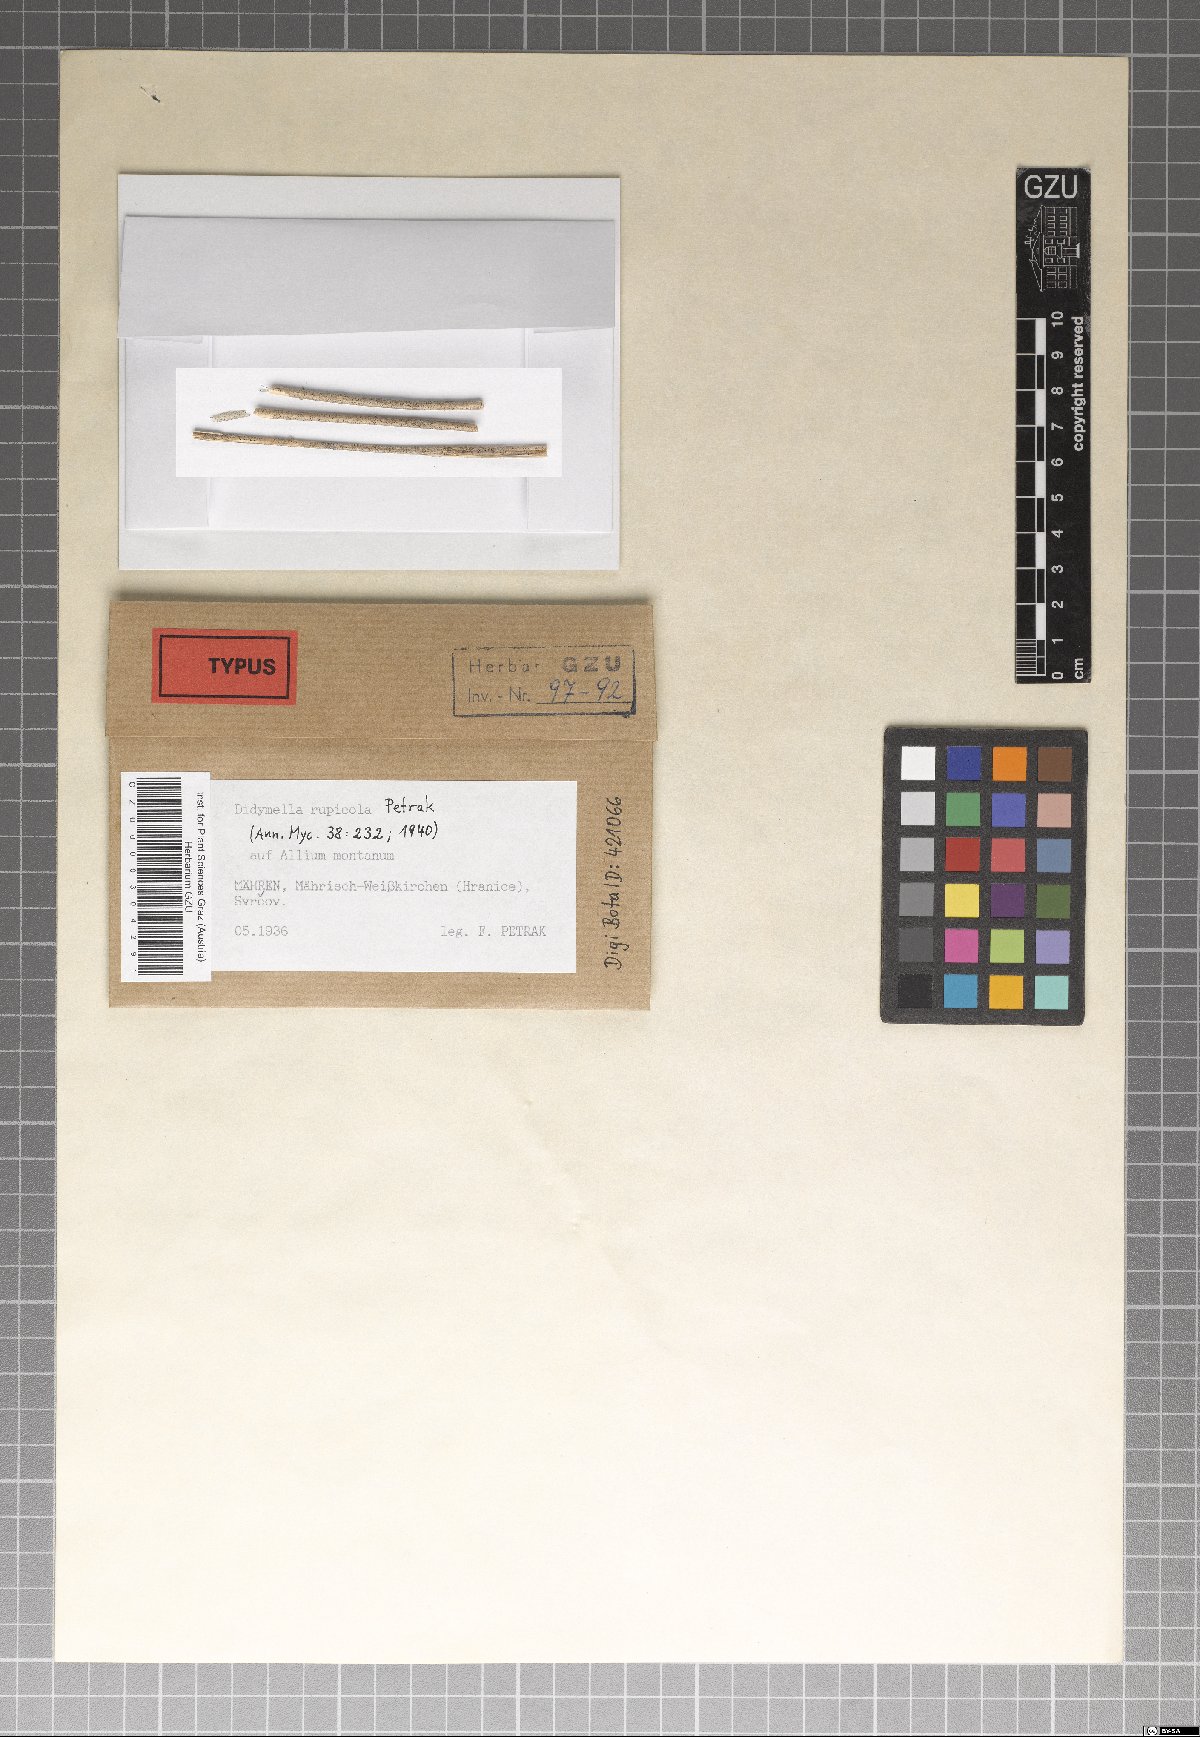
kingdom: Fungi
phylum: Ascomycota
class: Dothideomycetes
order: Pleosporales
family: Didymellaceae
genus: Didymella
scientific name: Didymella rupicola
